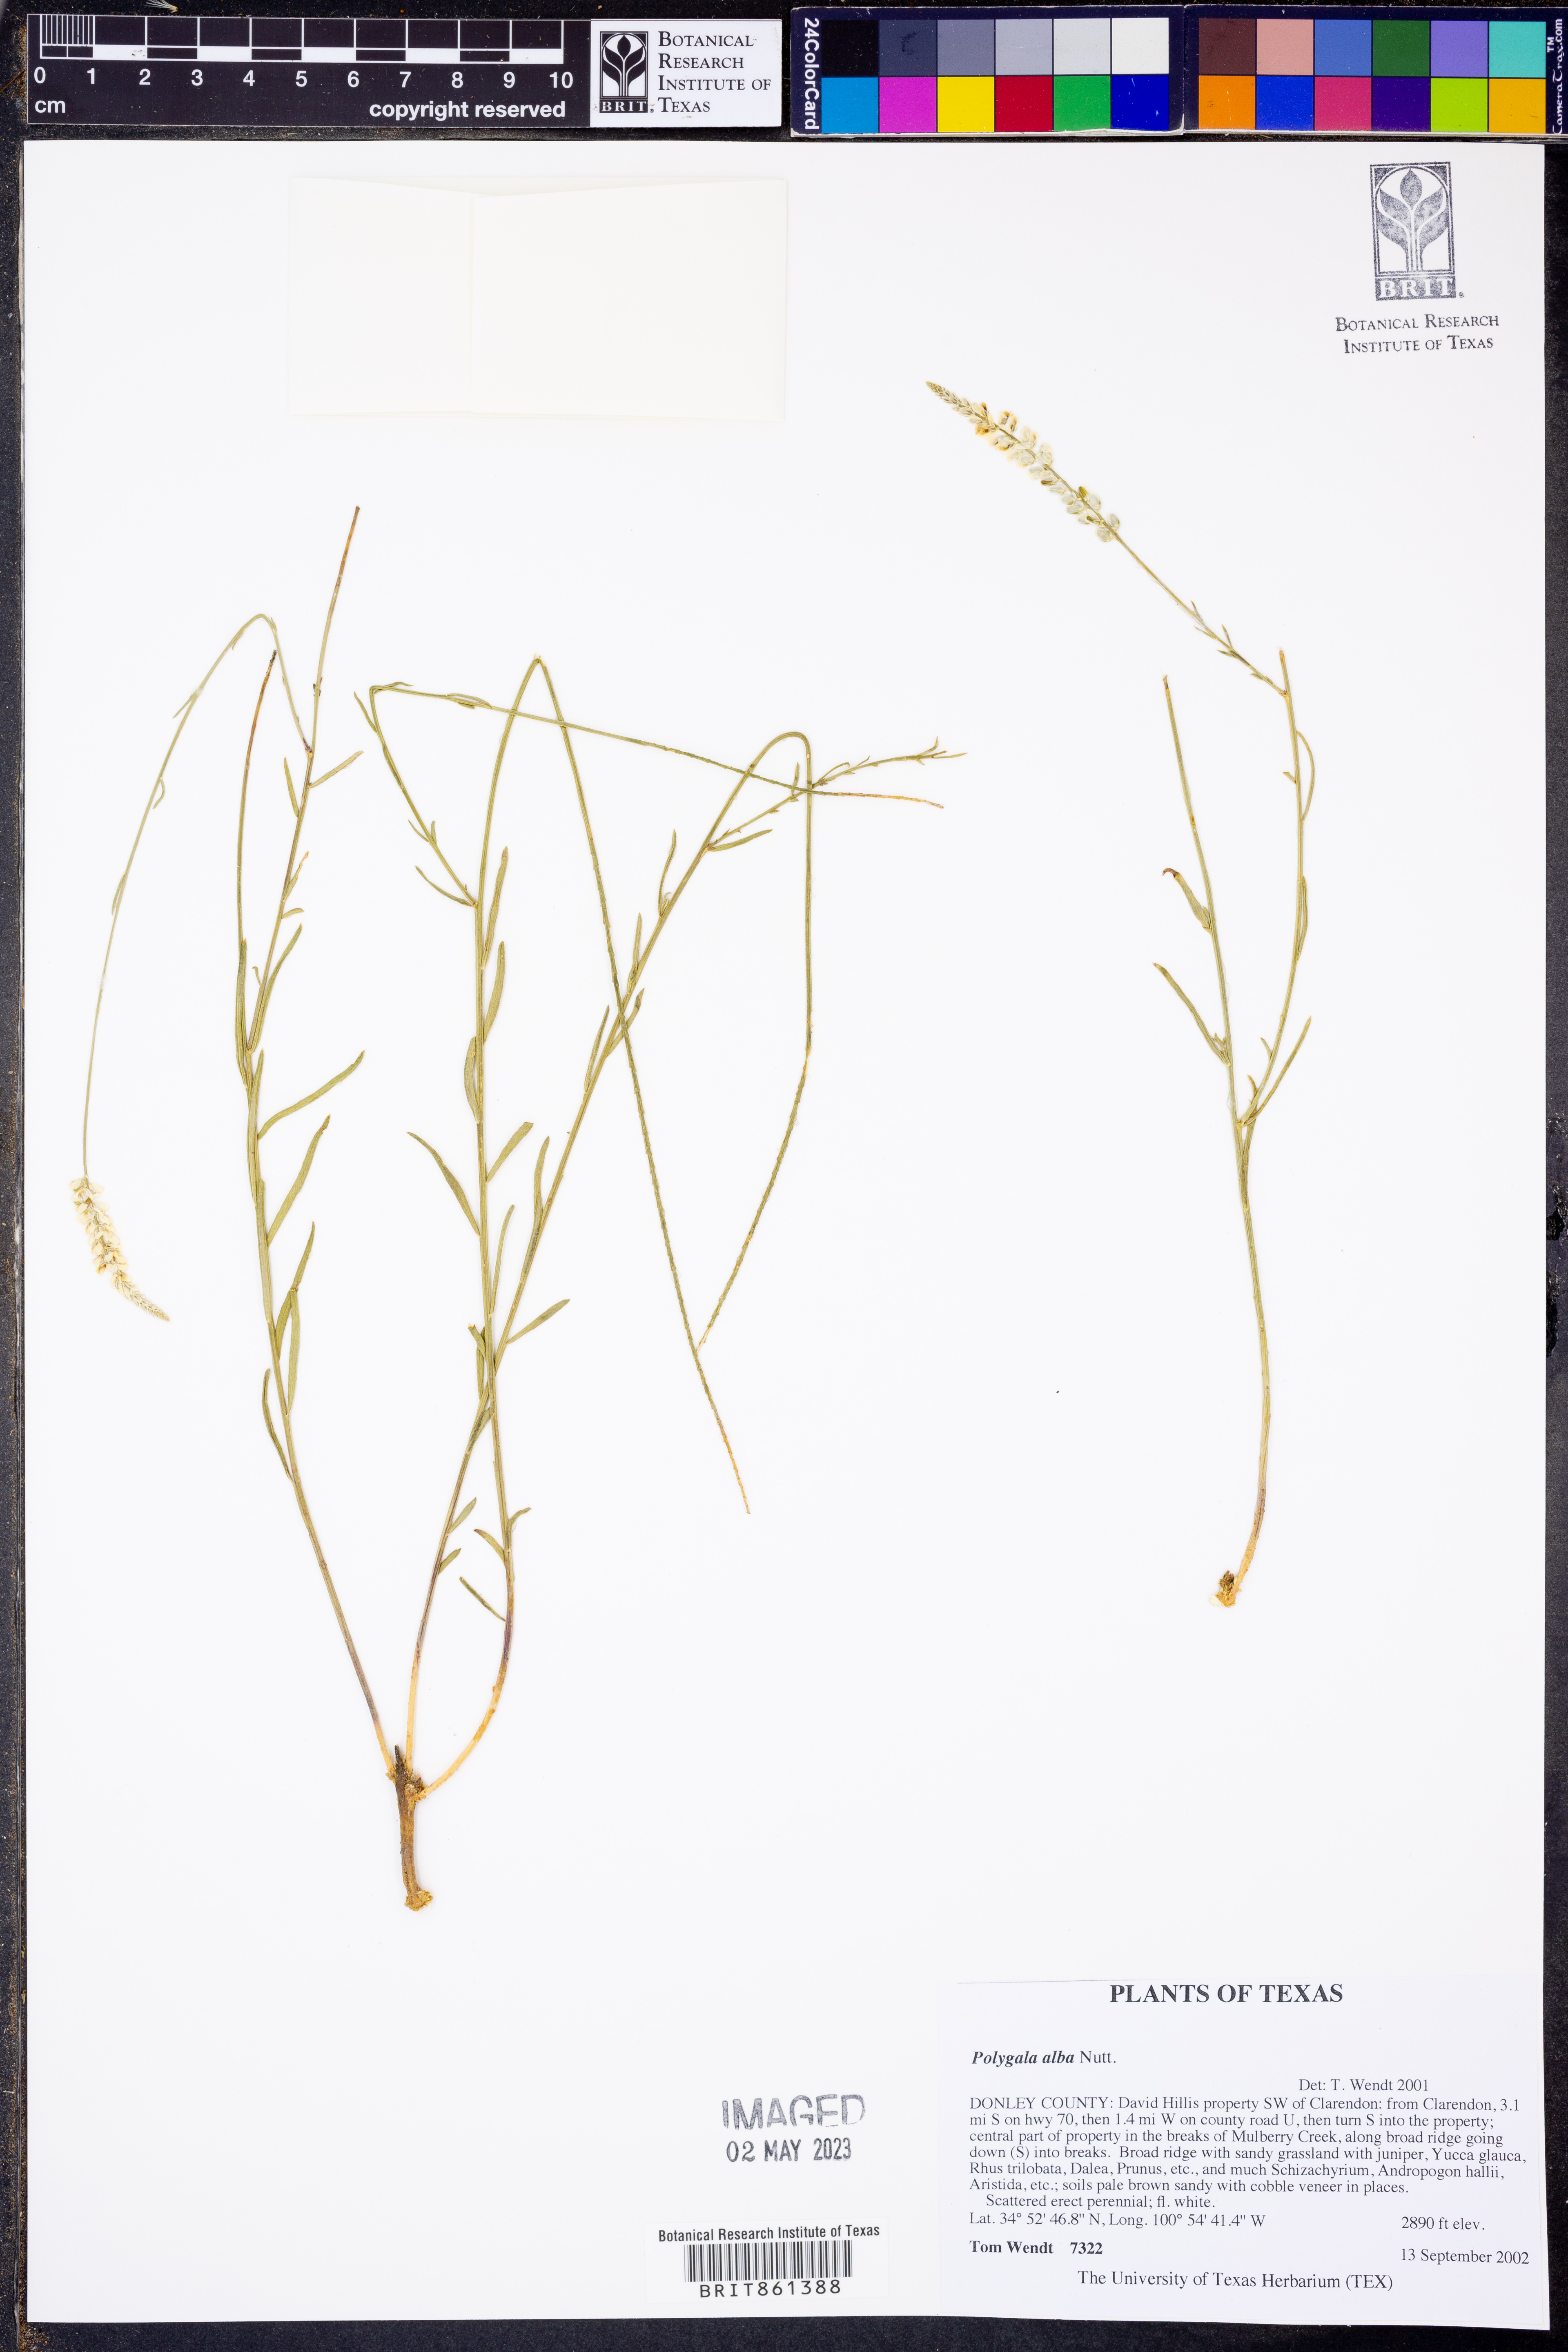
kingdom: Plantae
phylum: Tracheophyta
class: Magnoliopsida
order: Fabales
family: Polygalaceae
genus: Polygala
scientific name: Polygala alba
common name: White milkwort
